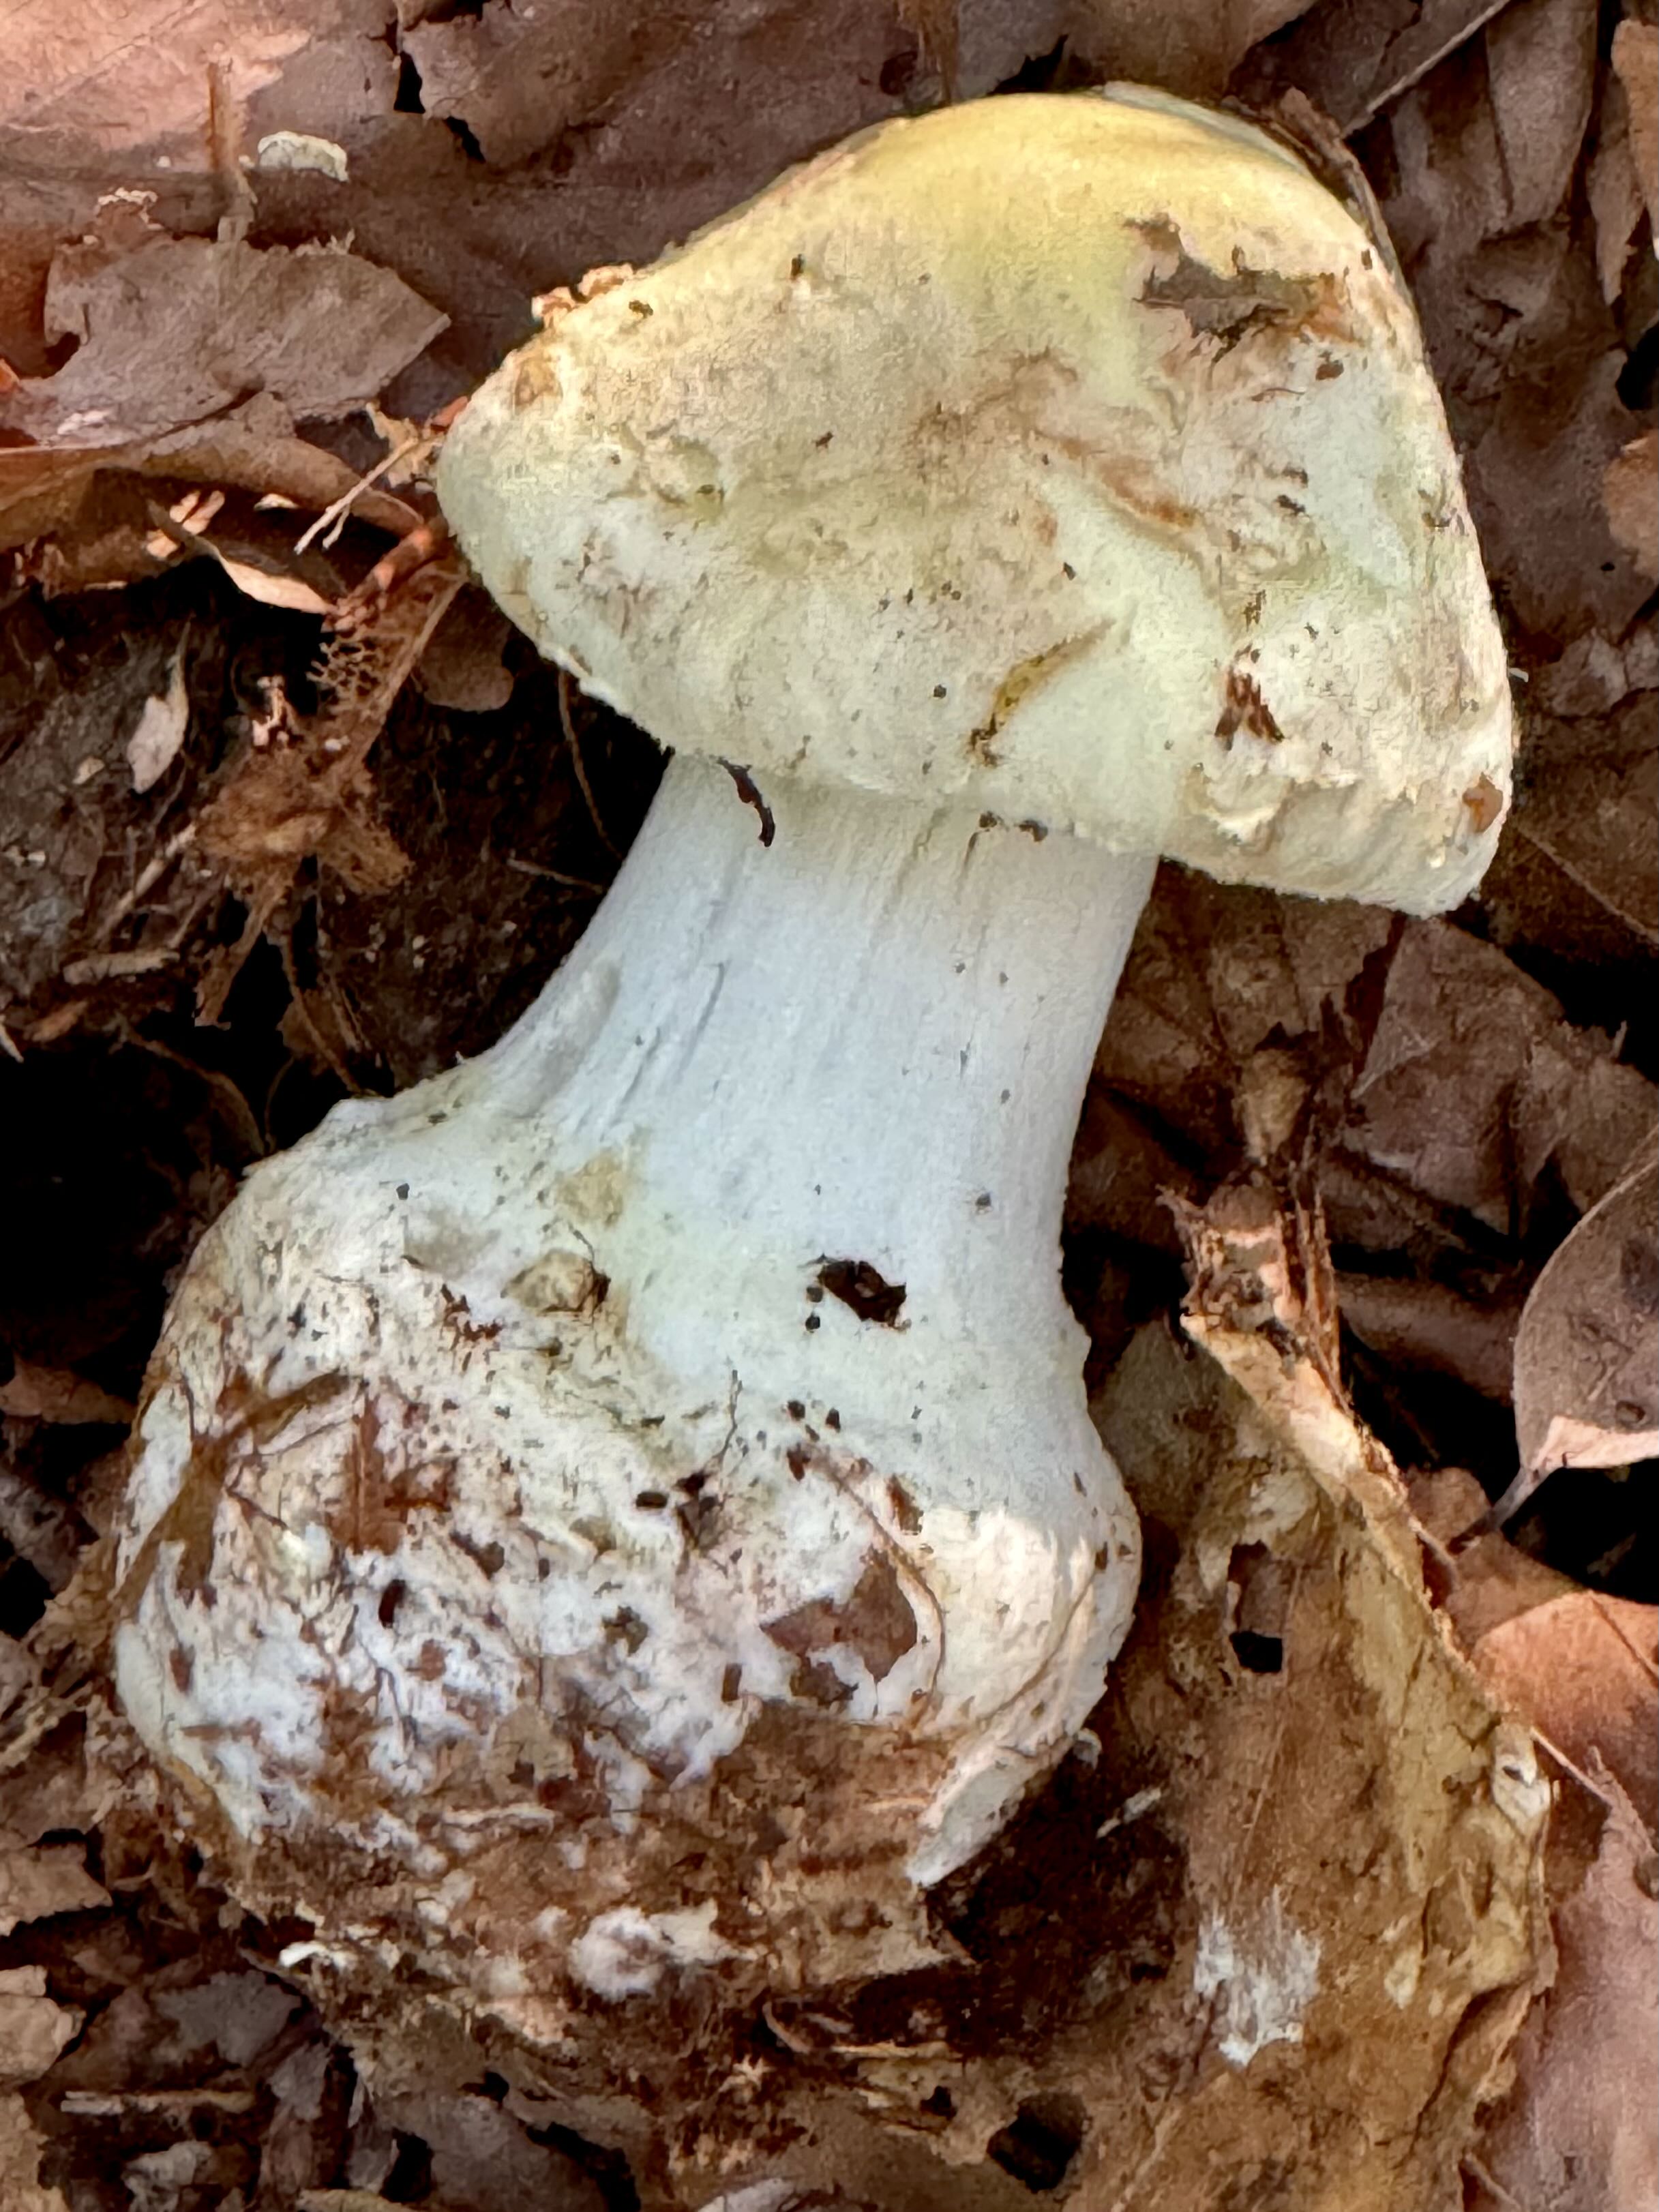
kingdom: Fungi
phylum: Basidiomycota
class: Agaricomycetes
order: Agaricales
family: Amanitaceae
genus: Amanita
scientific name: Amanita citrina
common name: kugleknoldet fluesvamp
